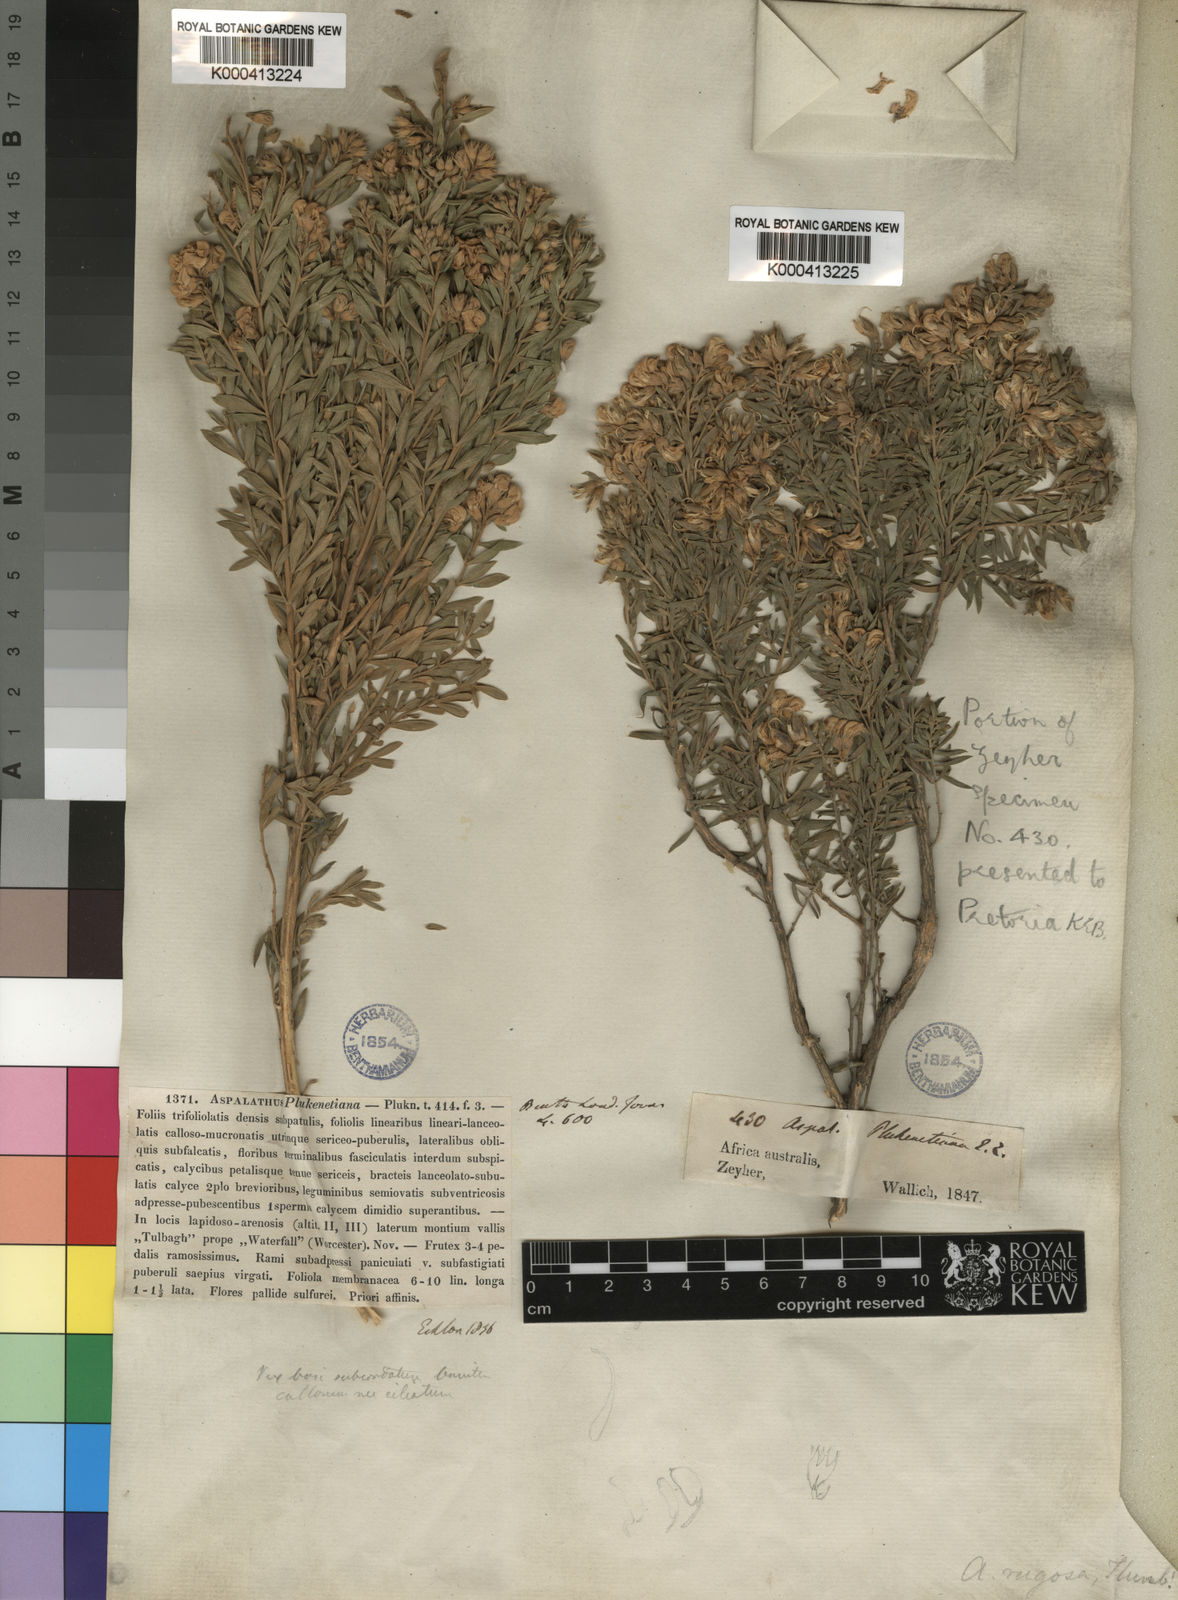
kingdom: Plantae
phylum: Tracheophyta
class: Magnoliopsida
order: Fabales
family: Fabaceae
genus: Aspalathus
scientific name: Aspalathus rugosa
